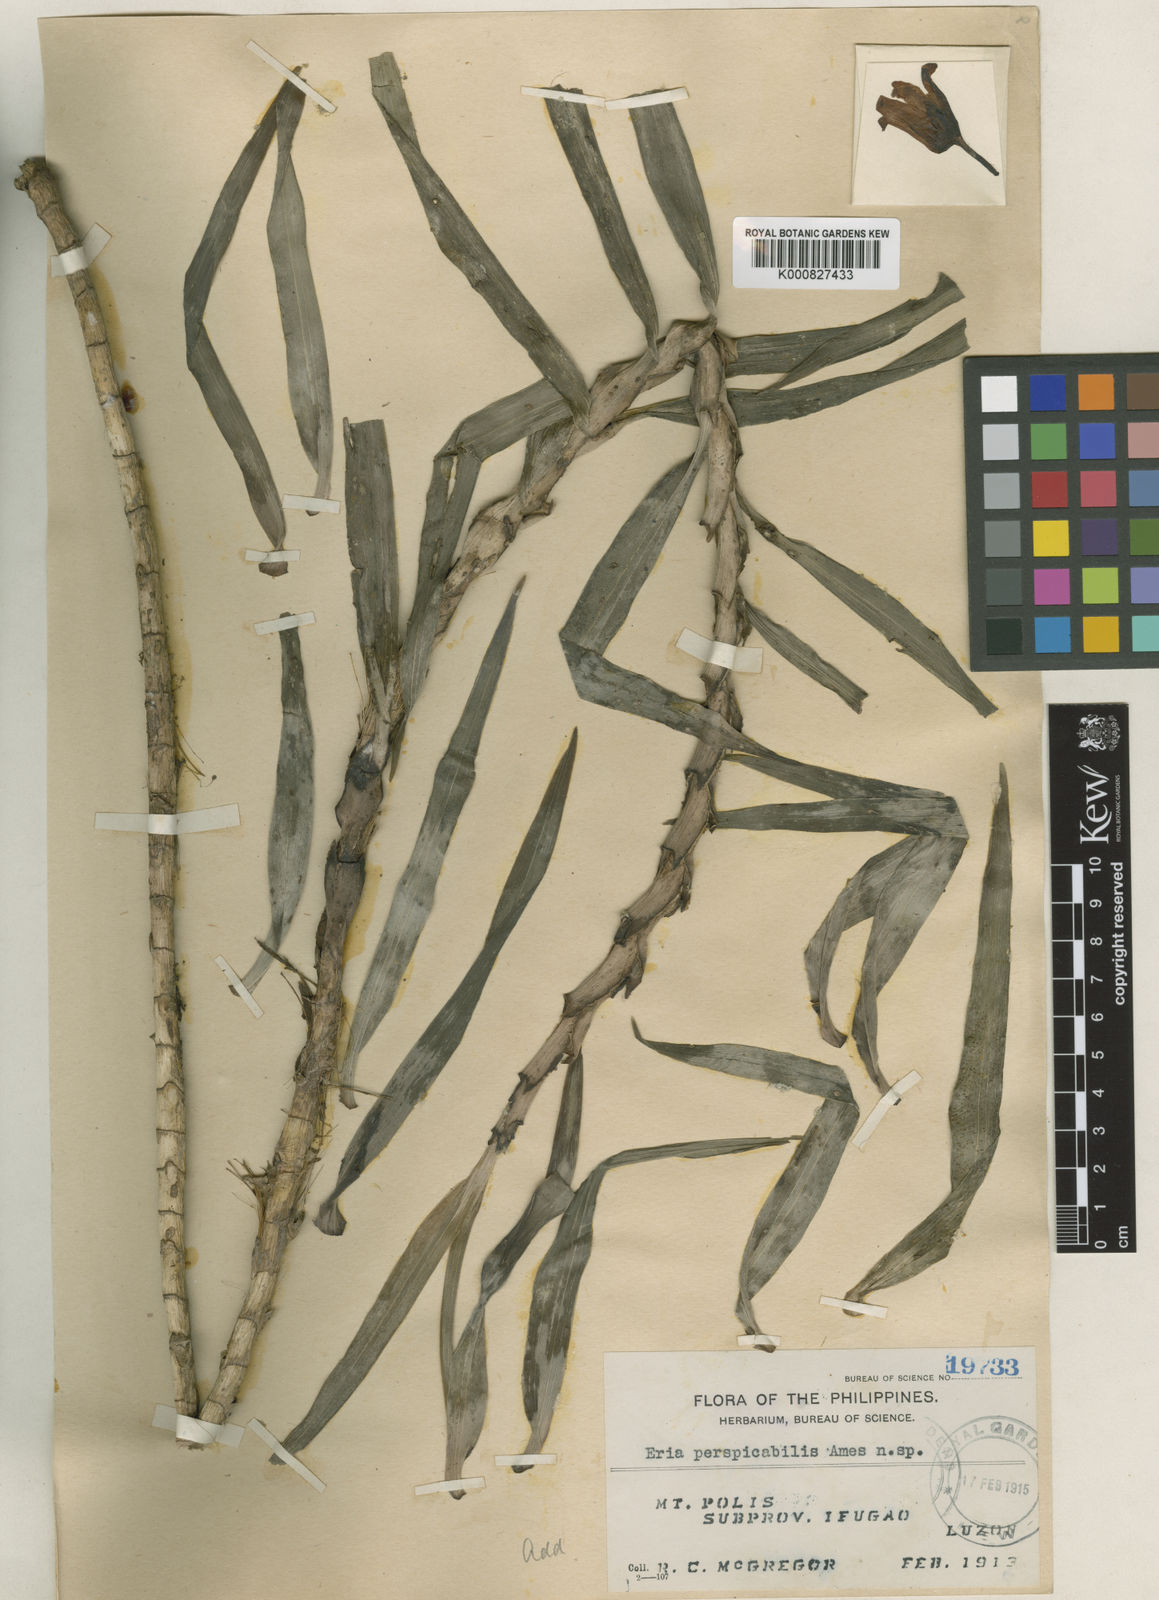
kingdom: Plantae
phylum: Tracheophyta
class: Liliopsida
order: Asparagales
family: Orchidaceae
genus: Cylindrolobus
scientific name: Cylindrolobus
